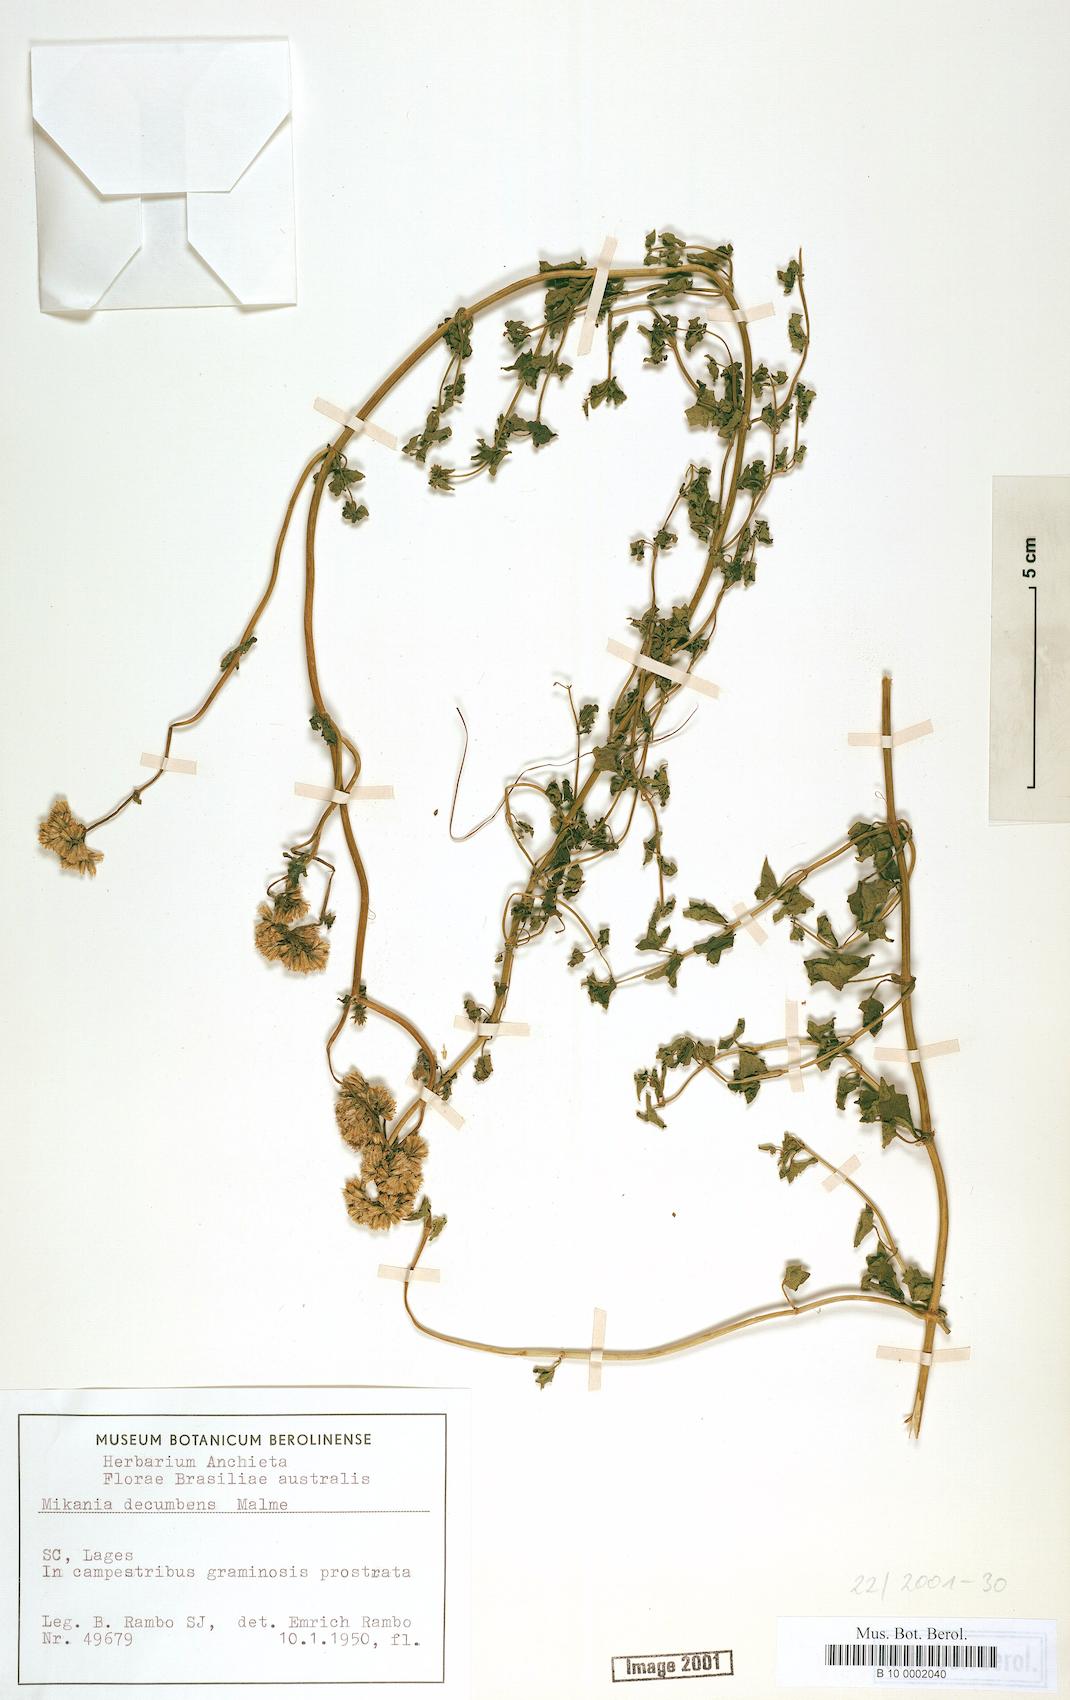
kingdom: Plantae
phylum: Tracheophyta
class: Magnoliopsida
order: Asterales
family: Asteraceae
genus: Mikania
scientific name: Mikania decumbens
